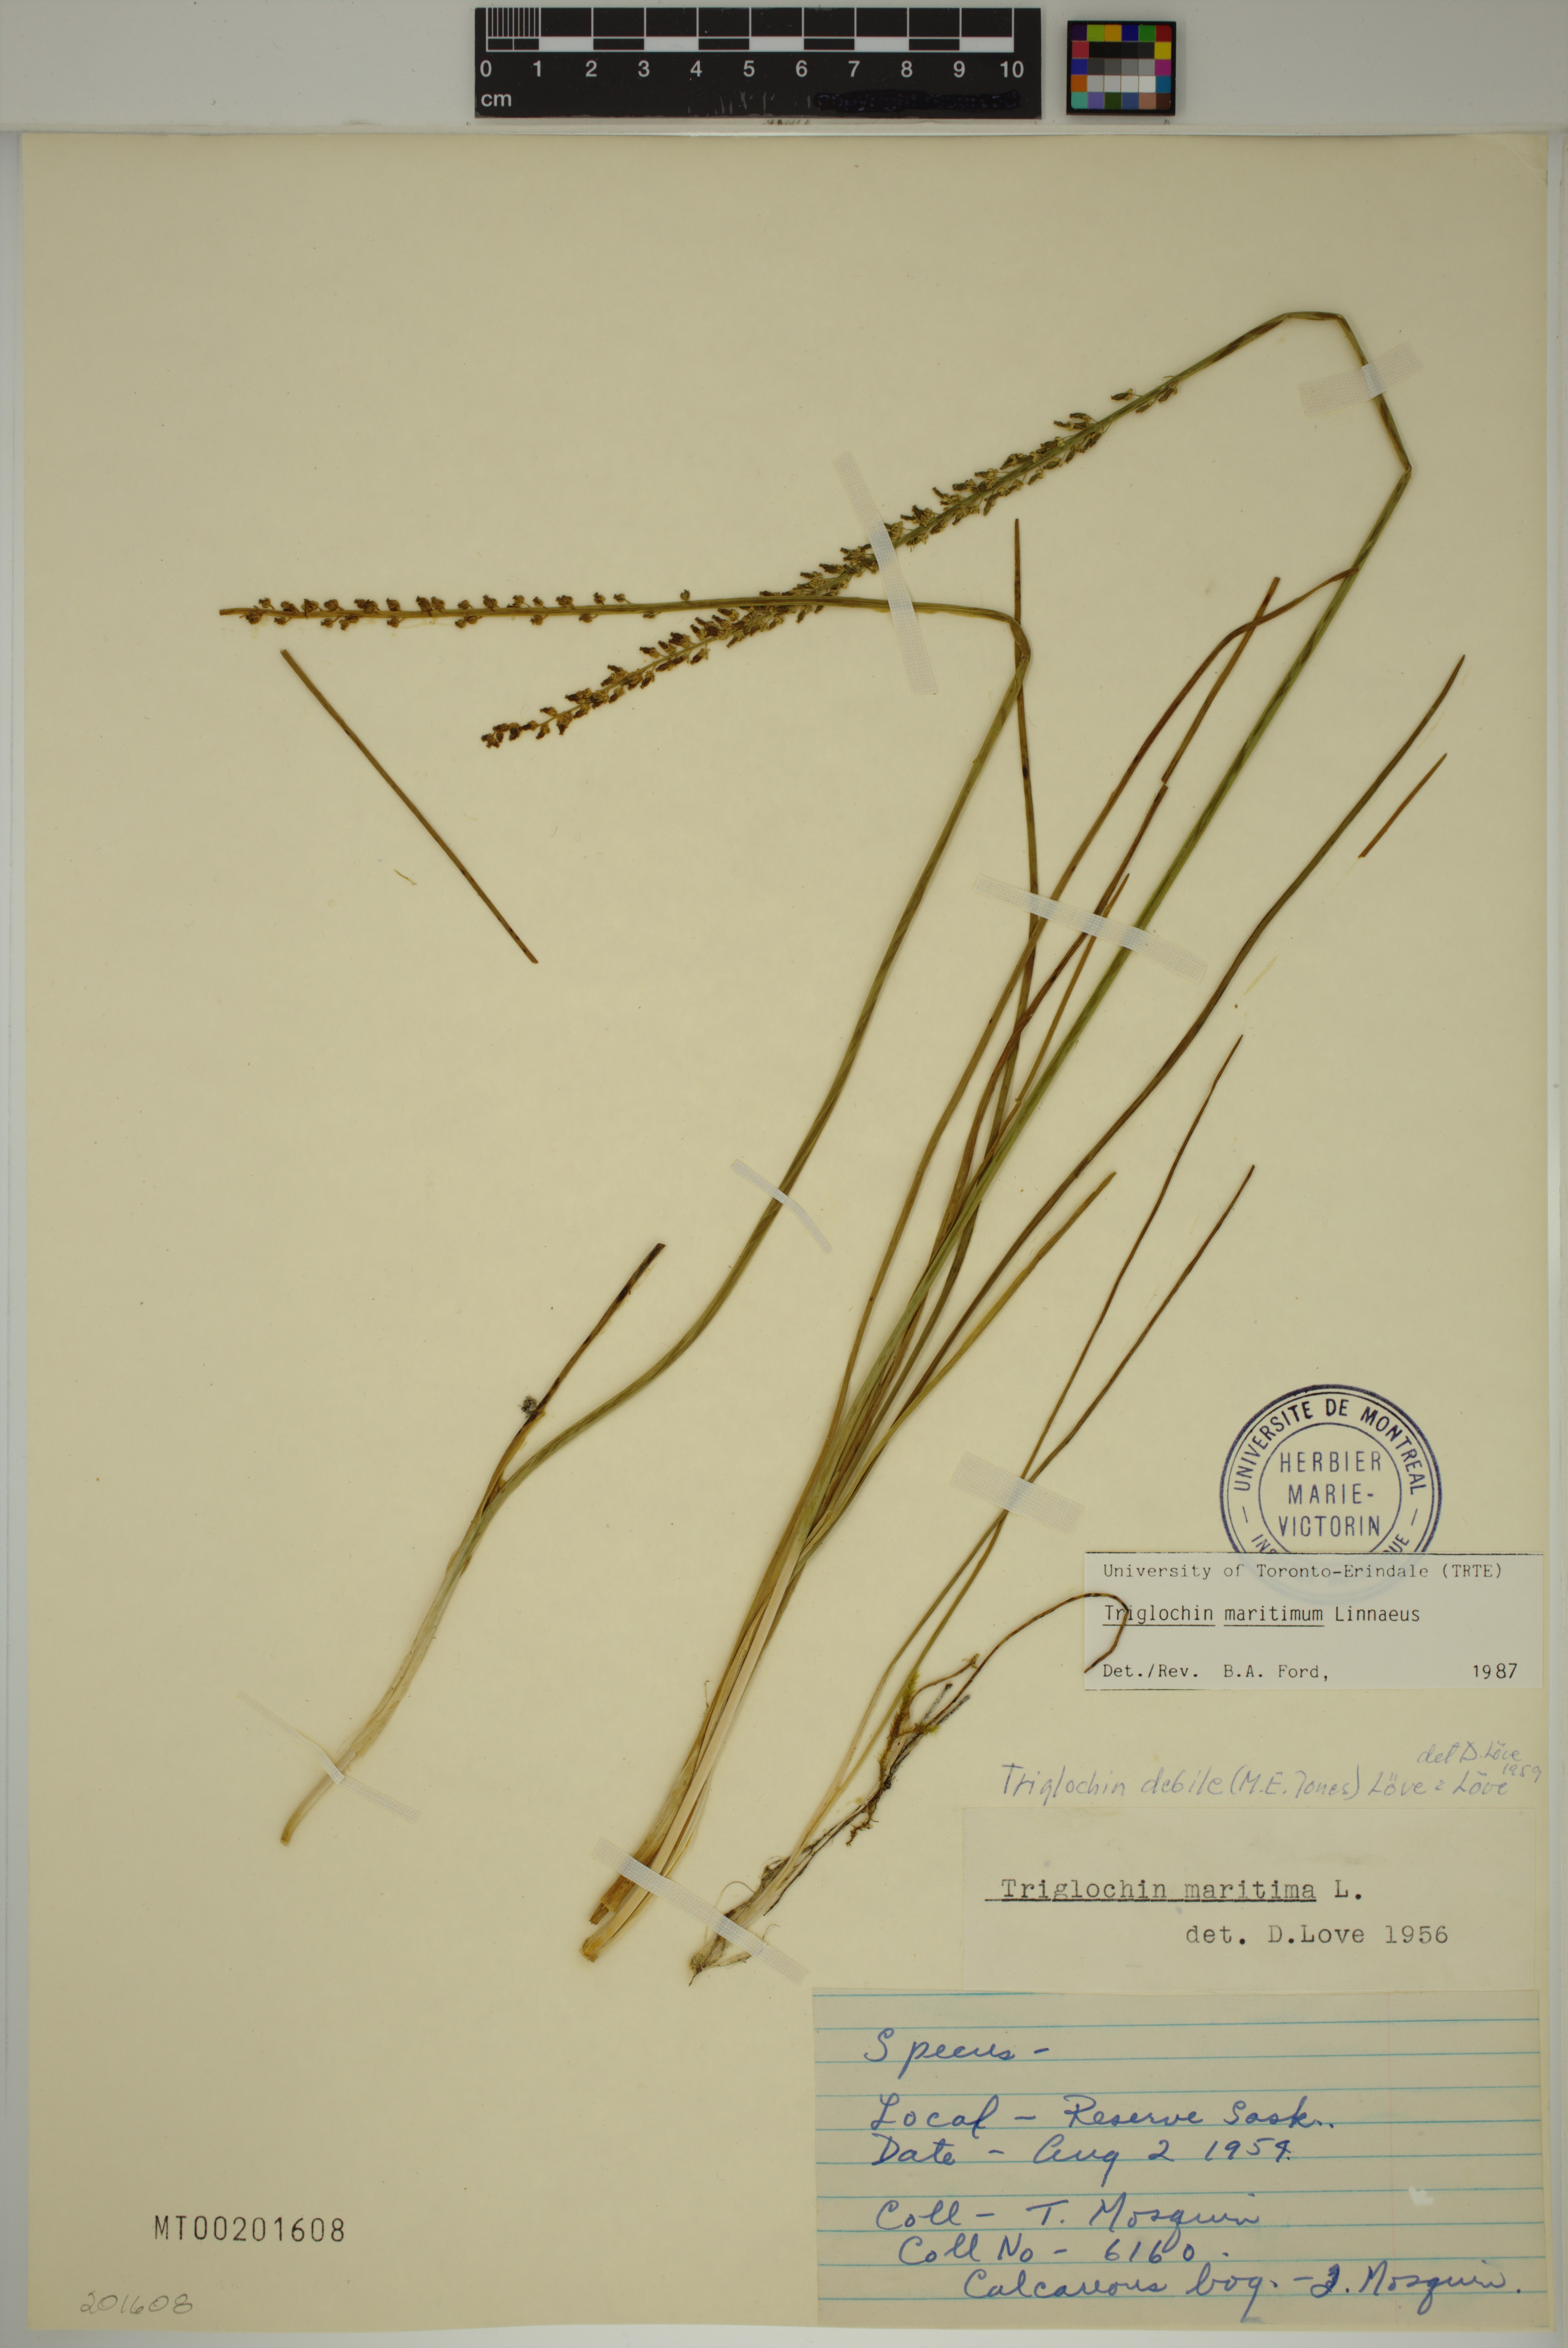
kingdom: Plantae
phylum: Tracheophyta
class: Liliopsida
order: Alismatales
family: Juncaginaceae
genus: Triglochin
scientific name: Triglochin maritima
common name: Sea arrowgrass
